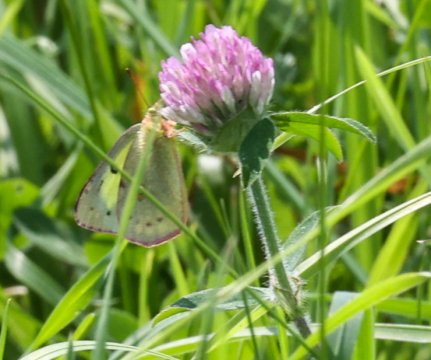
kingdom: Animalia
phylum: Arthropoda
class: Insecta
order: Lepidoptera
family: Pieridae
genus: Colias
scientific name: Colias philodice
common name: Clouded Sulphur
